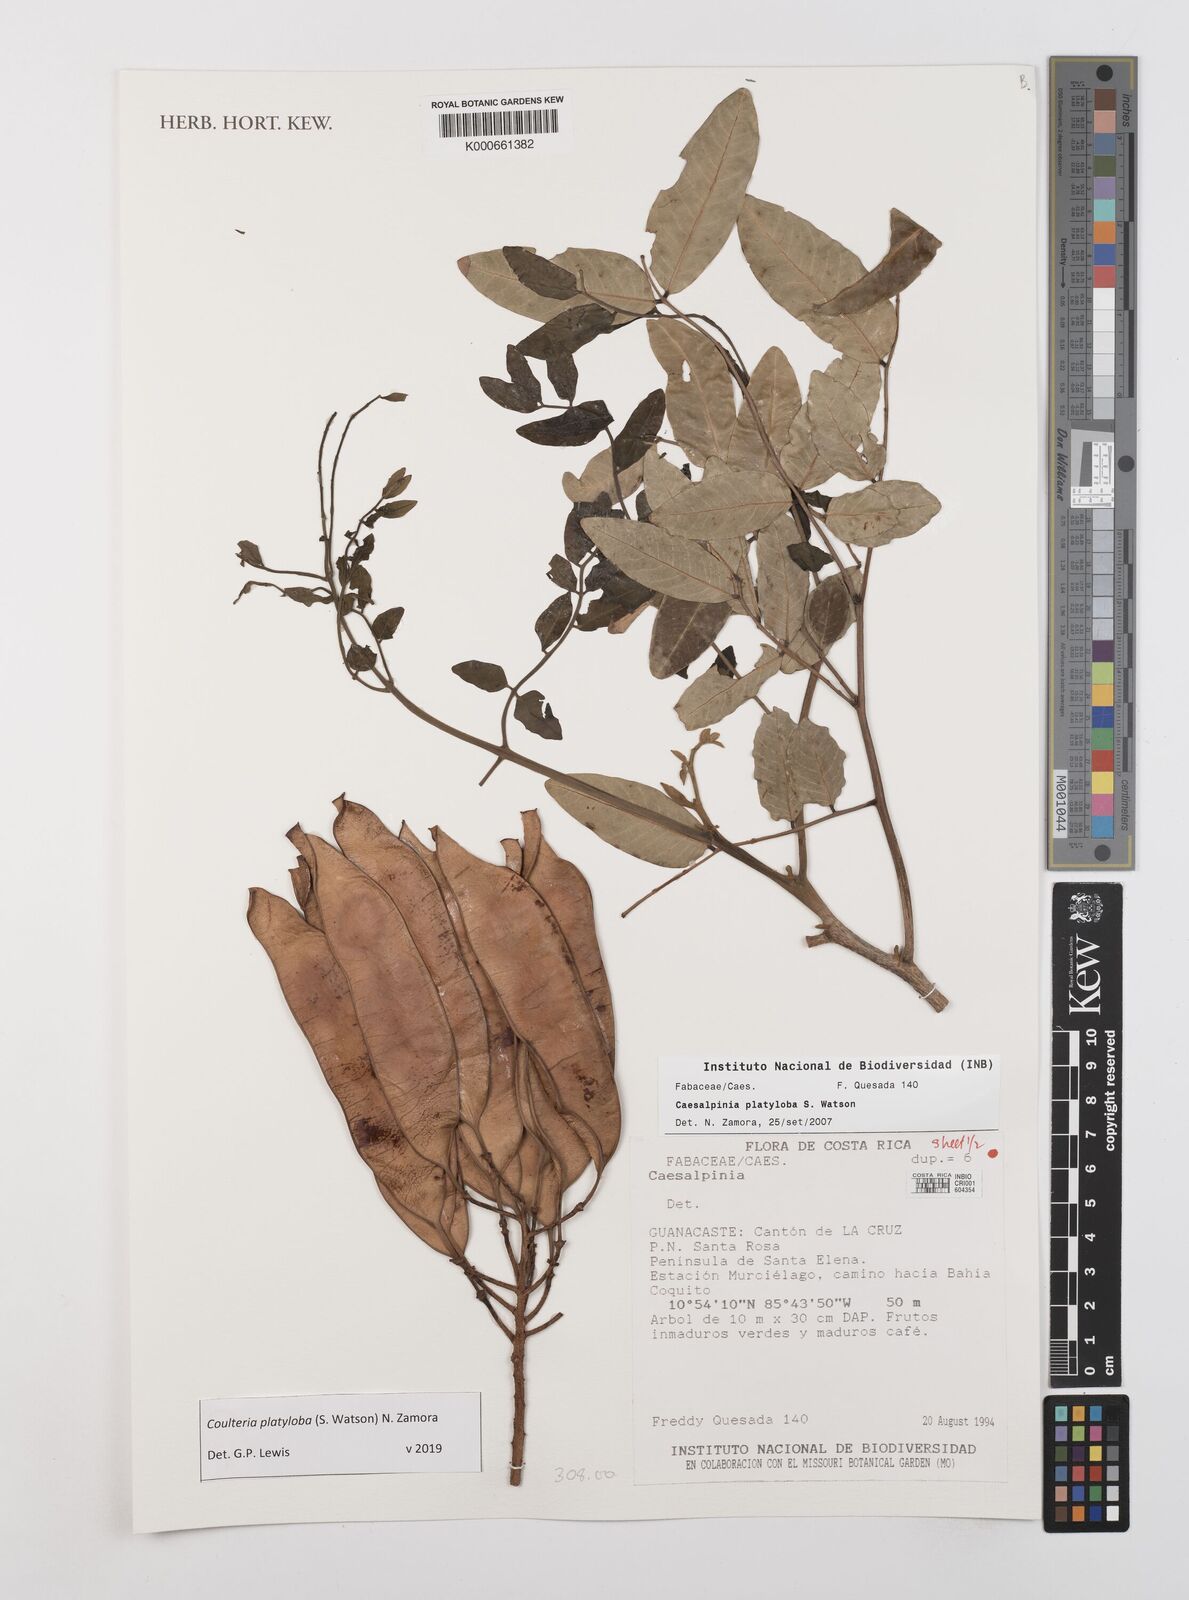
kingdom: Plantae
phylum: Tracheophyta
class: Magnoliopsida
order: Fabales
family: Fabaceae
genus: Coulteria
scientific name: Coulteria platyloba
